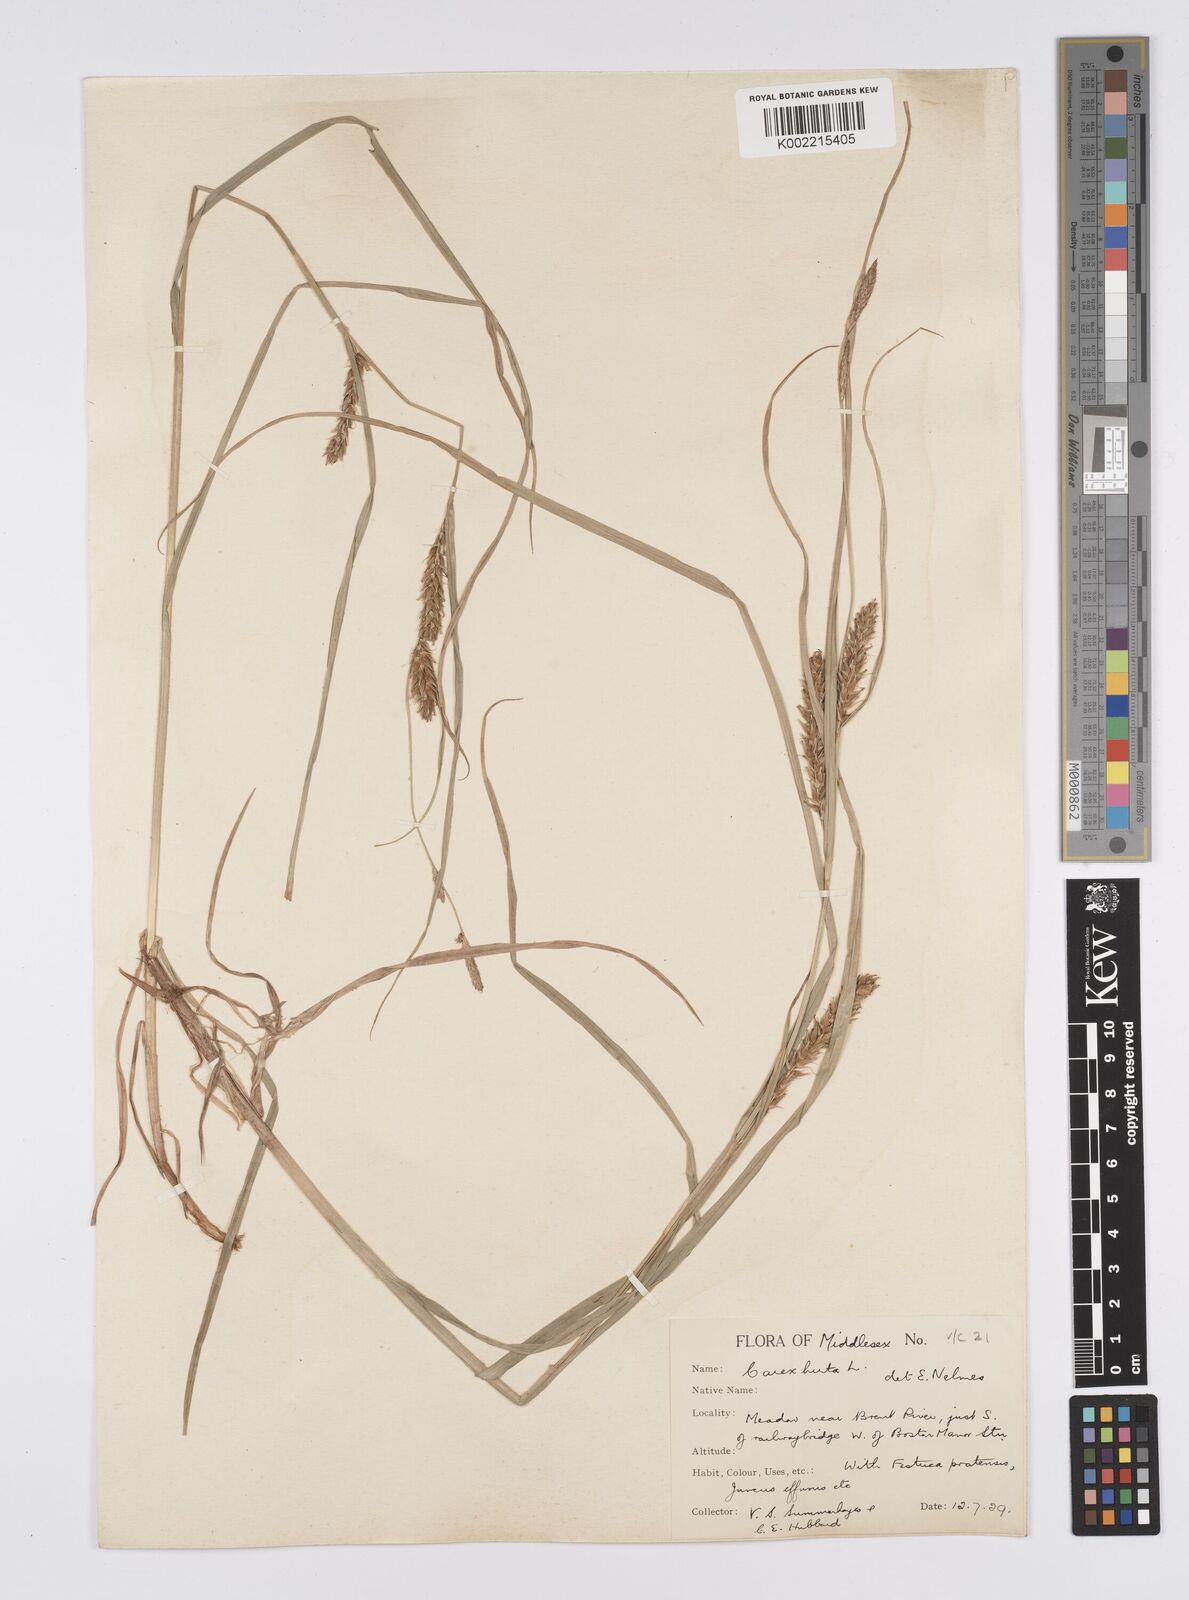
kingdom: Plantae
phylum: Tracheophyta
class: Liliopsida
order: Poales
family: Cyperaceae
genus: Carex
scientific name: Carex hirta
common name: Hairy sedge
